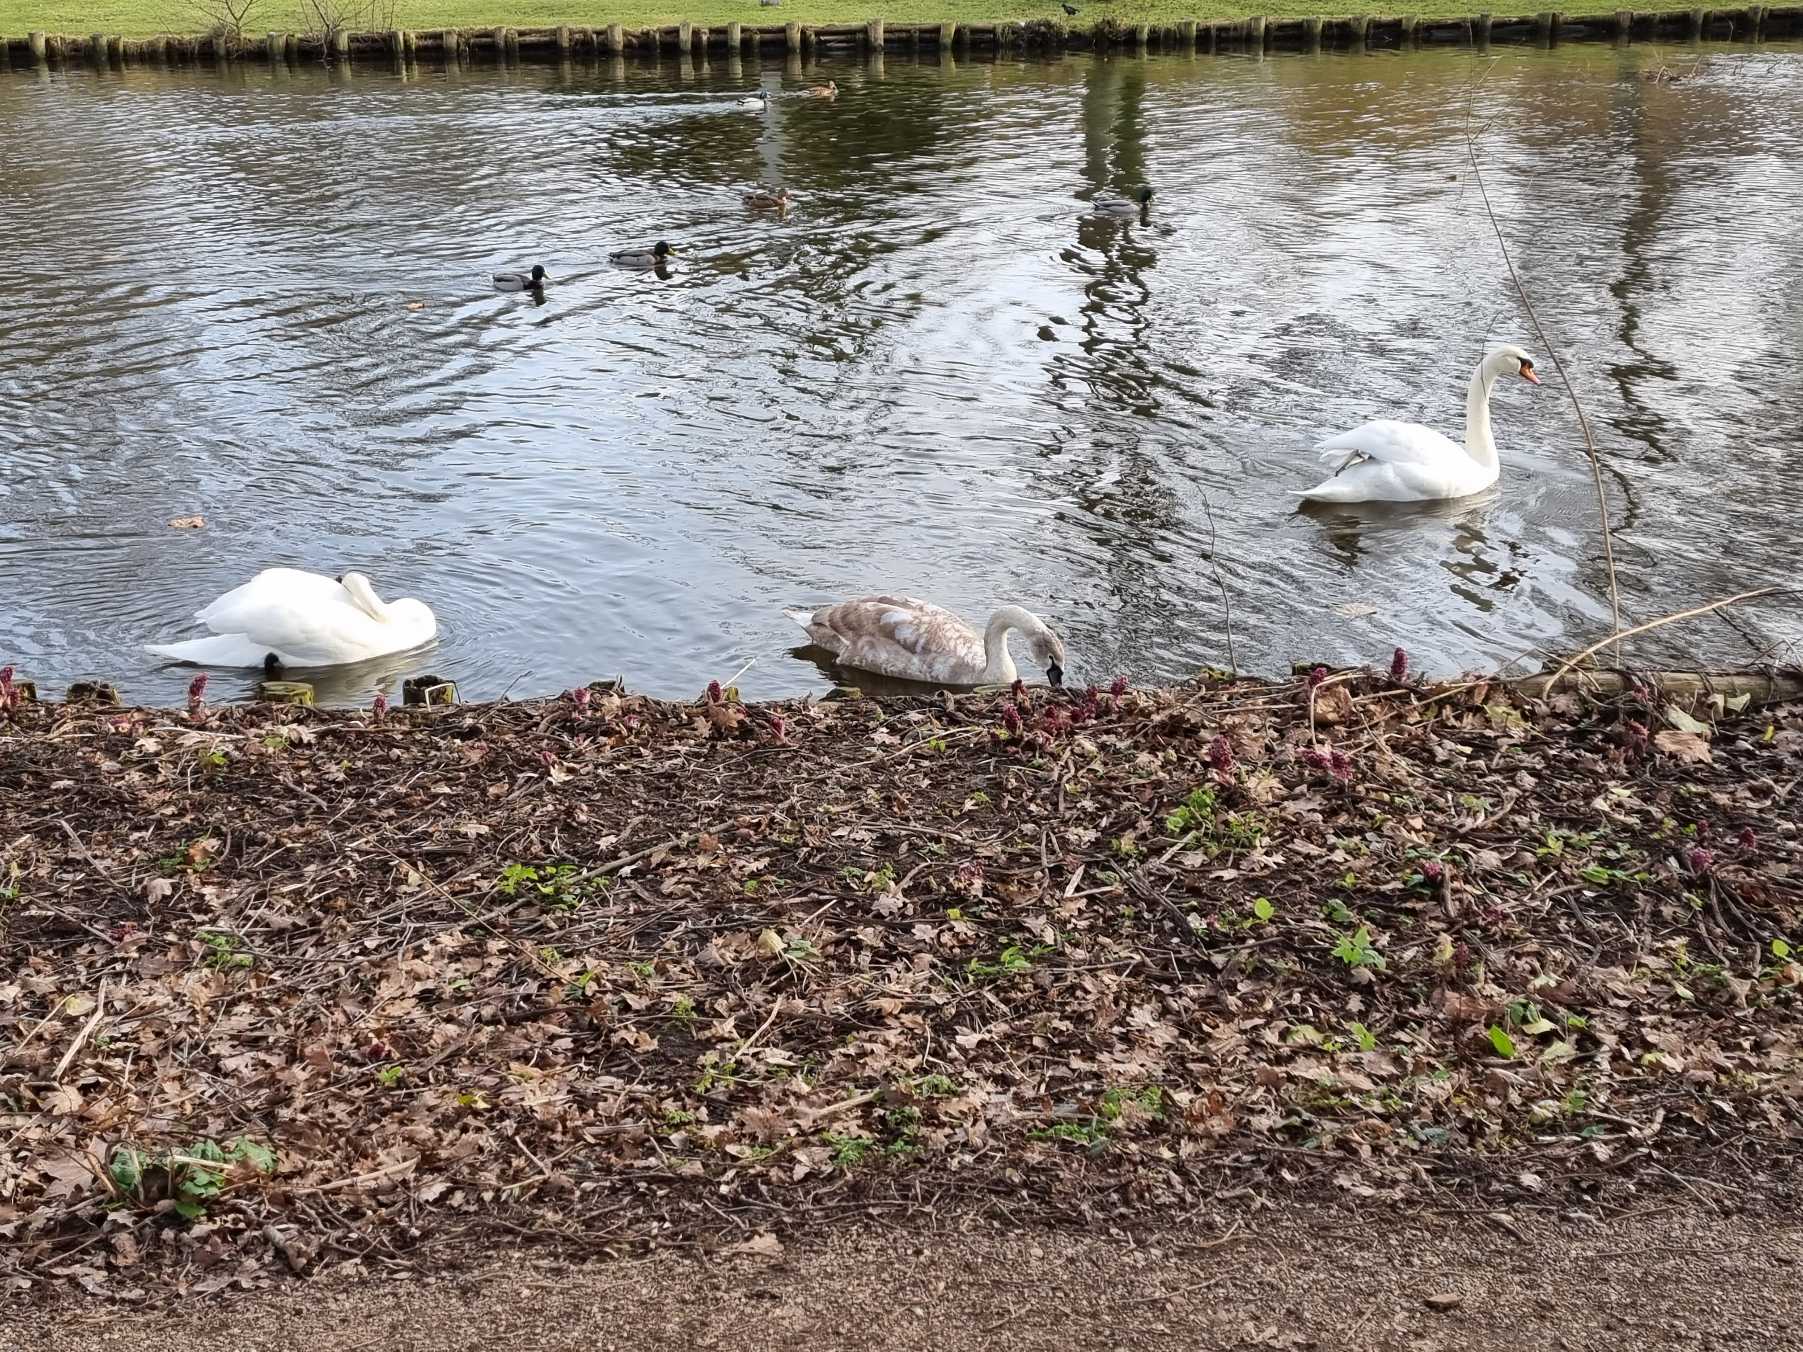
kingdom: Animalia
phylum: Chordata
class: Aves
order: Anseriformes
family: Anatidae
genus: Cygnus
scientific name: Cygnus olor
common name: Knopsvane
